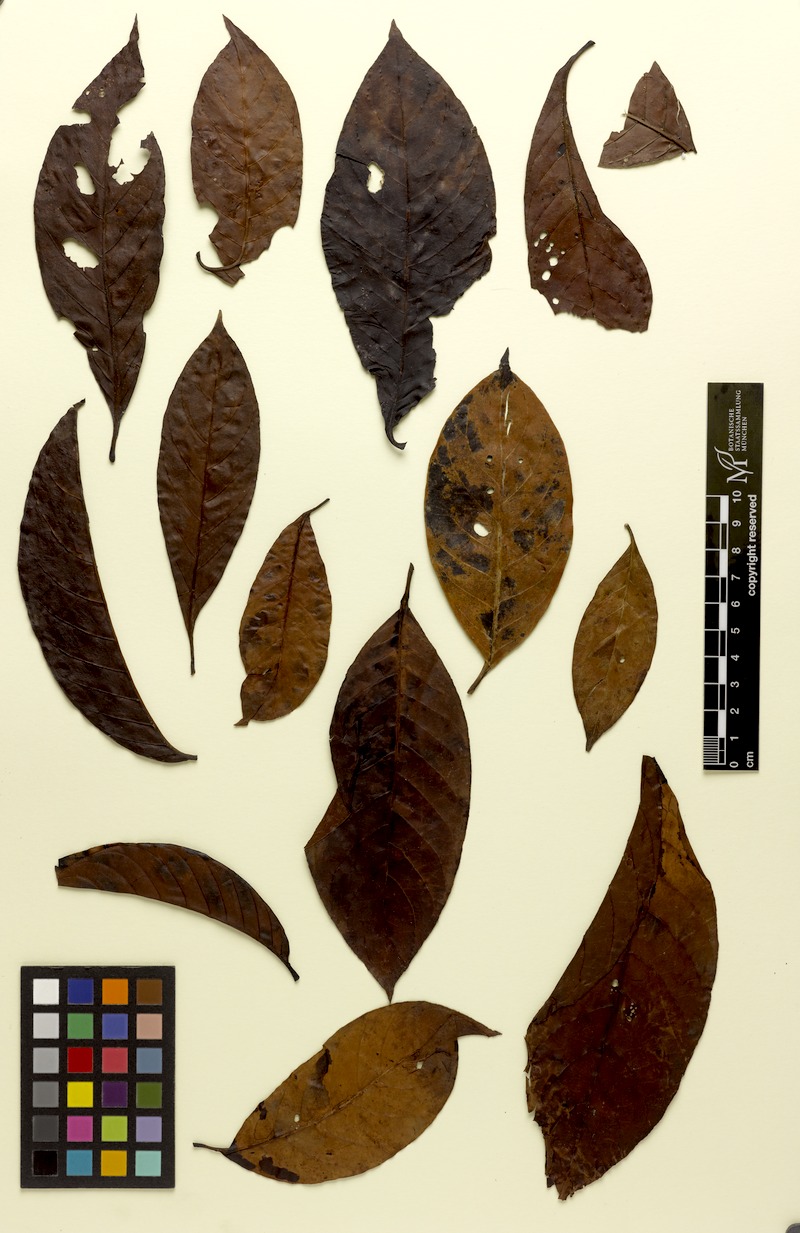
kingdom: Plantae
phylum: Tracheophyta
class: Magnoliopsida
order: Gentianales
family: Rubiaceae
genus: Psychotria
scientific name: Psychotria pedunculosa
